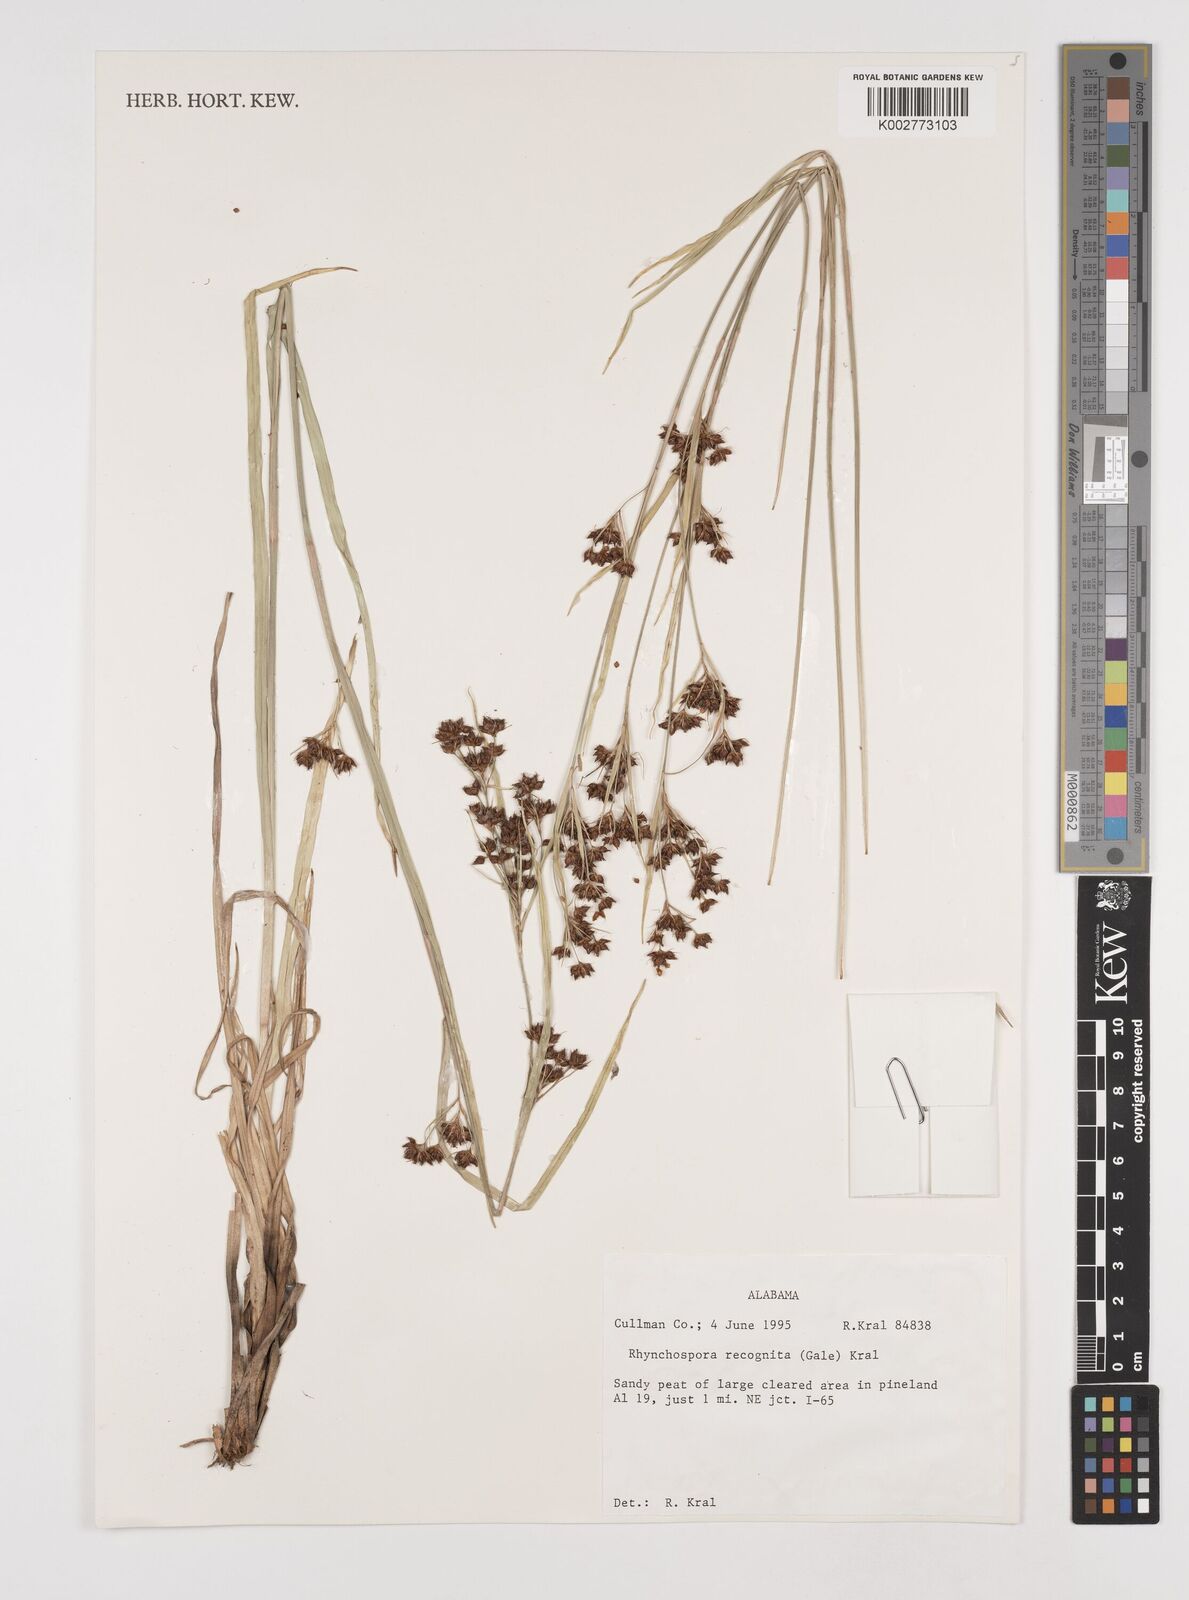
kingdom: Plantae
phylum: Tracheophyta
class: Liliopsida
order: Poales
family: Cyperaceae
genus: Rhynchospora
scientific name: Rhynchospora recognita
